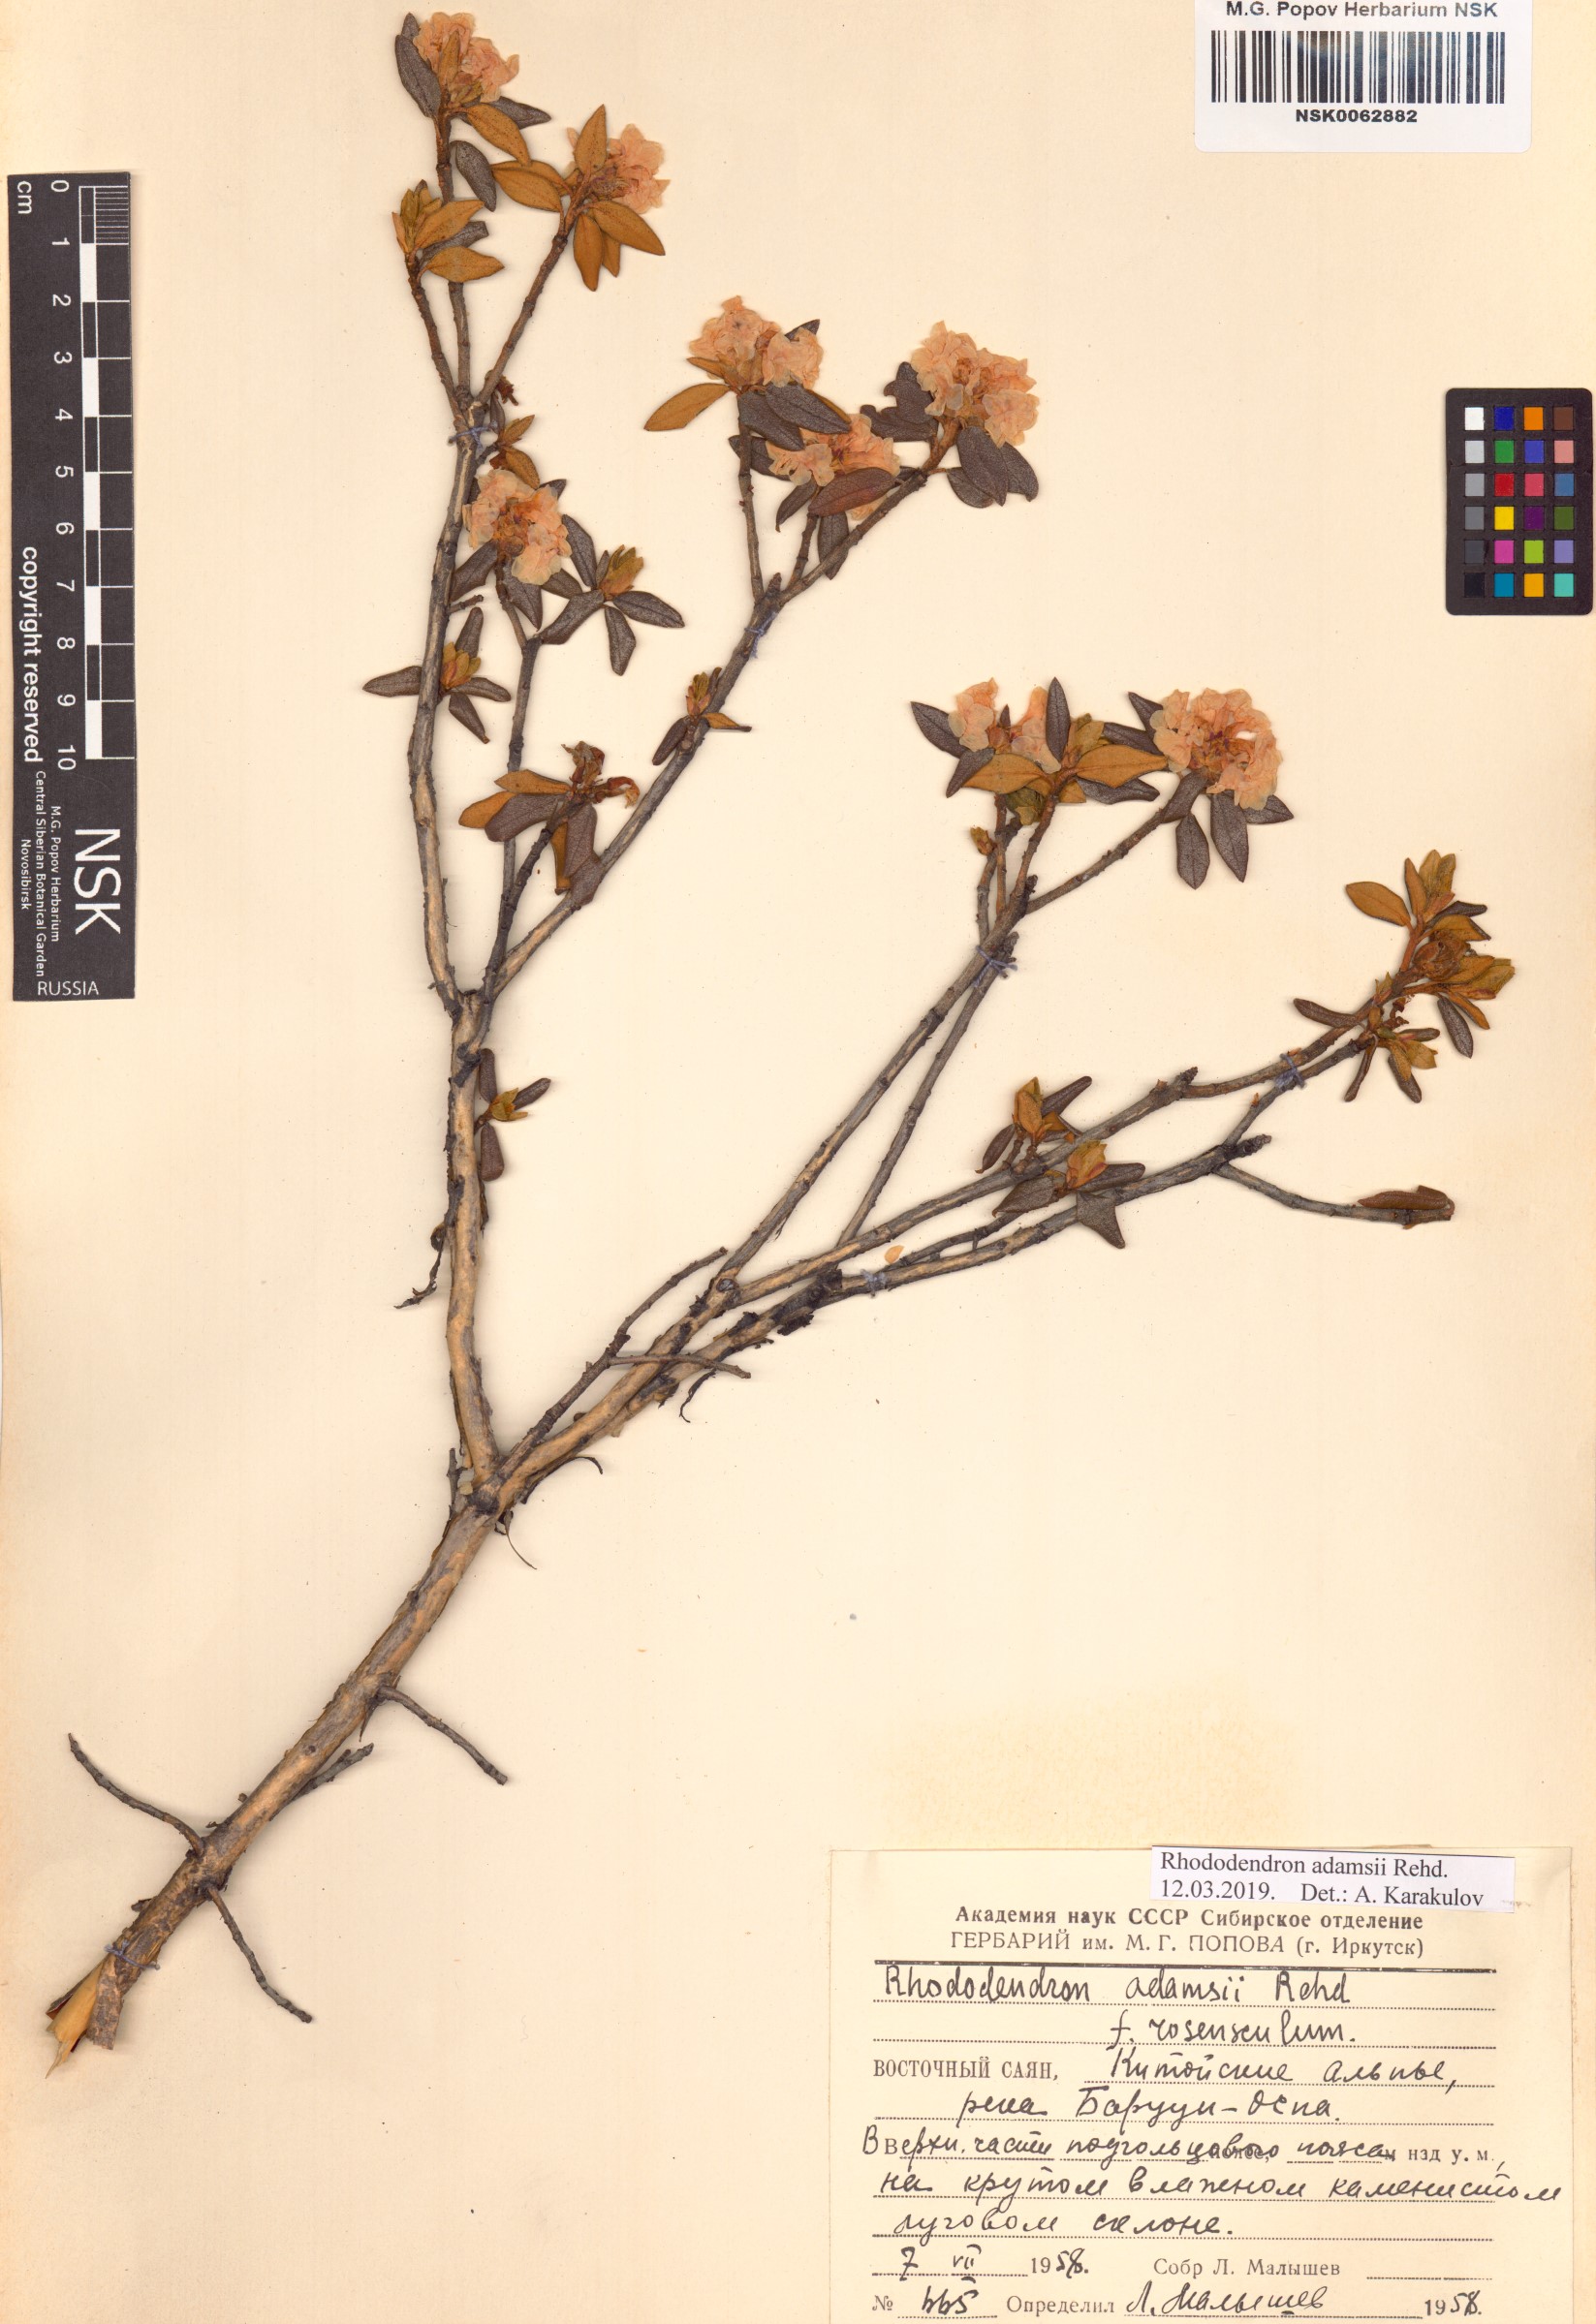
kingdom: Plantae
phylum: Tracheophyta
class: Magnoliopsida
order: Ericales
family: Ericaceae
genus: Rhododendron
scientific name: Rhododendron adamsii
